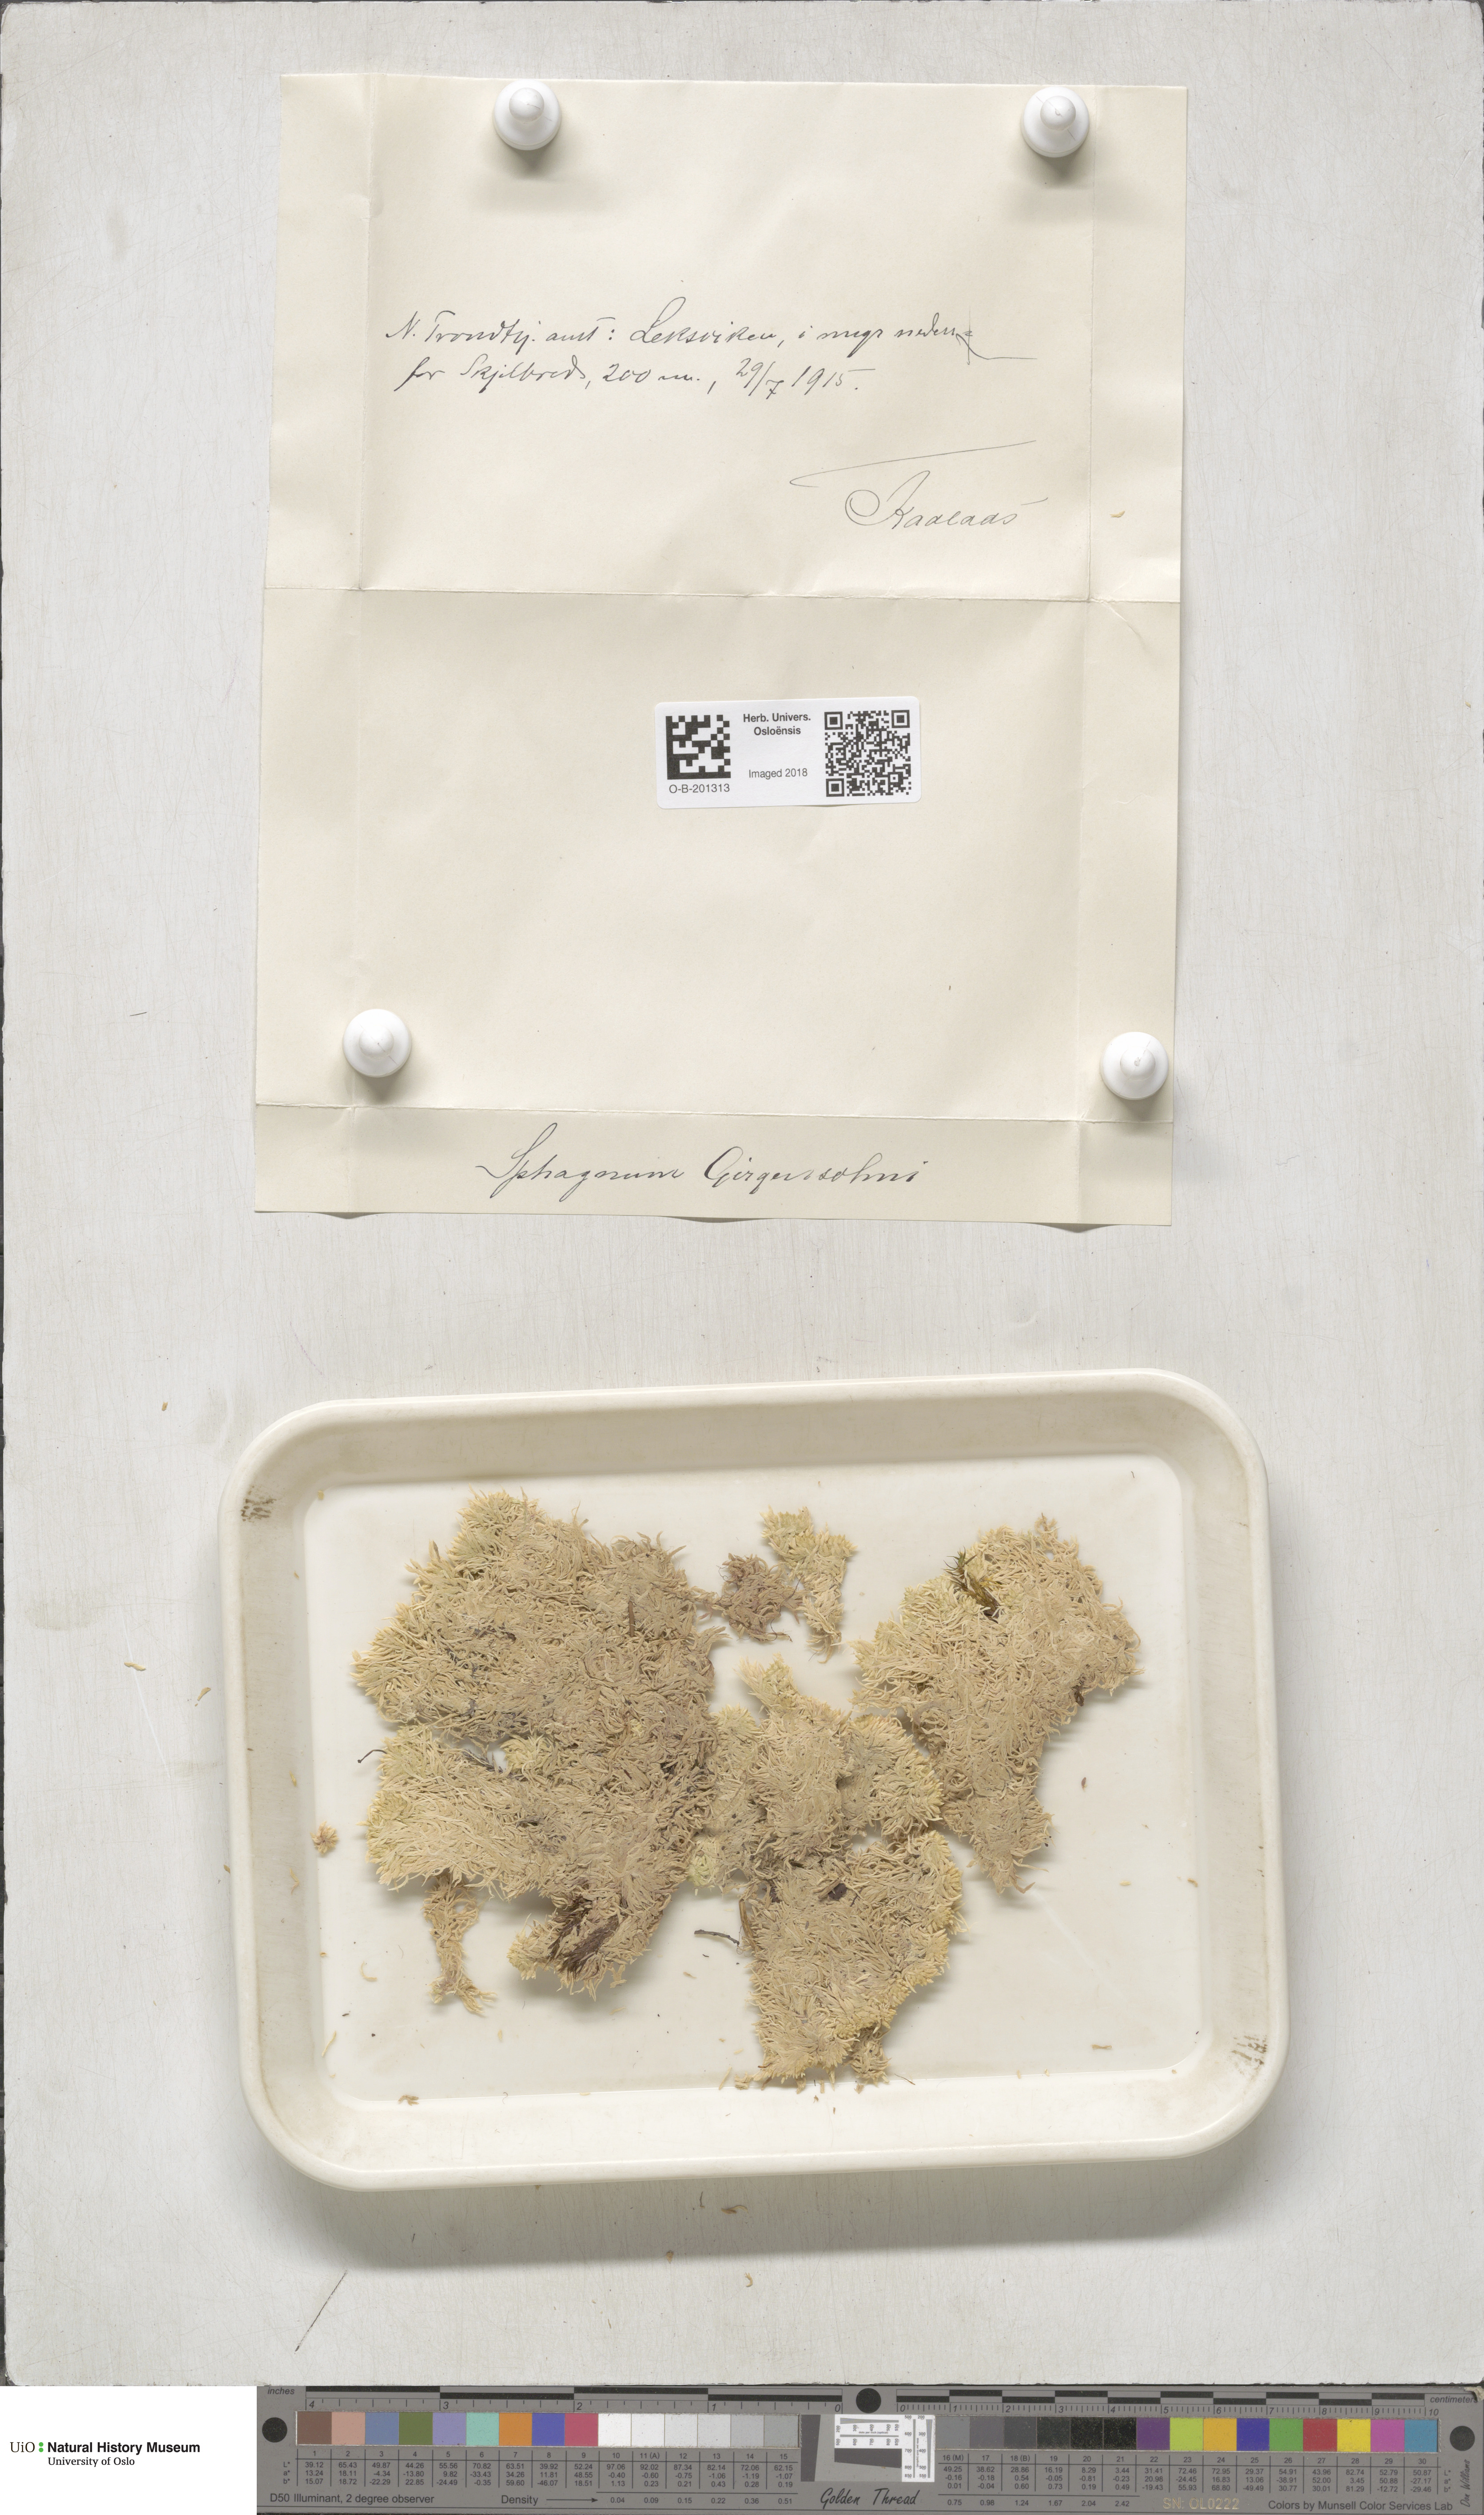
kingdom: Plantae
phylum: Bryophyta
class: Sphagnopsida
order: Sphagnales
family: Sphagnaceae
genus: Sphagnum
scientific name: Sphagnum girgensohnii
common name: Girgensohn's peat moss
